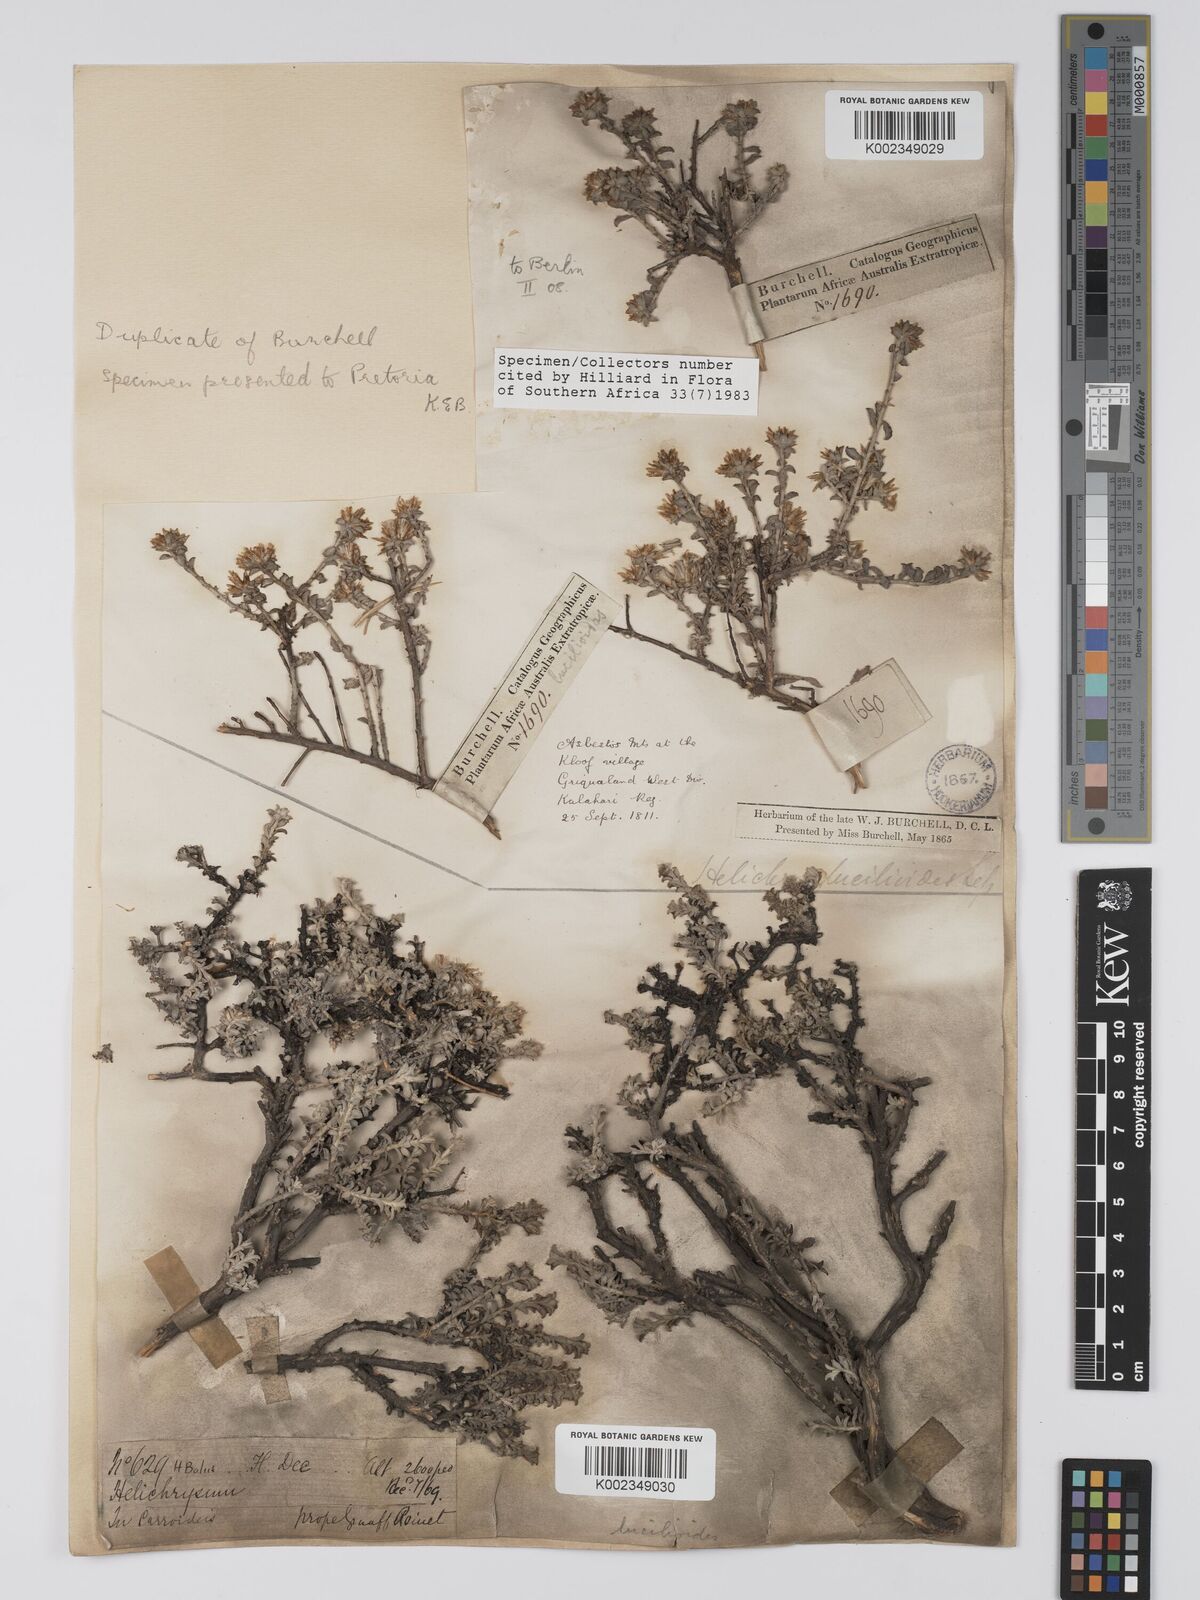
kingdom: Plantae
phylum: Tracheophyta
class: Magnoliopsida
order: Asterales
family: Asteraceae
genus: Helichrysum
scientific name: Helichrysum hamulosum
